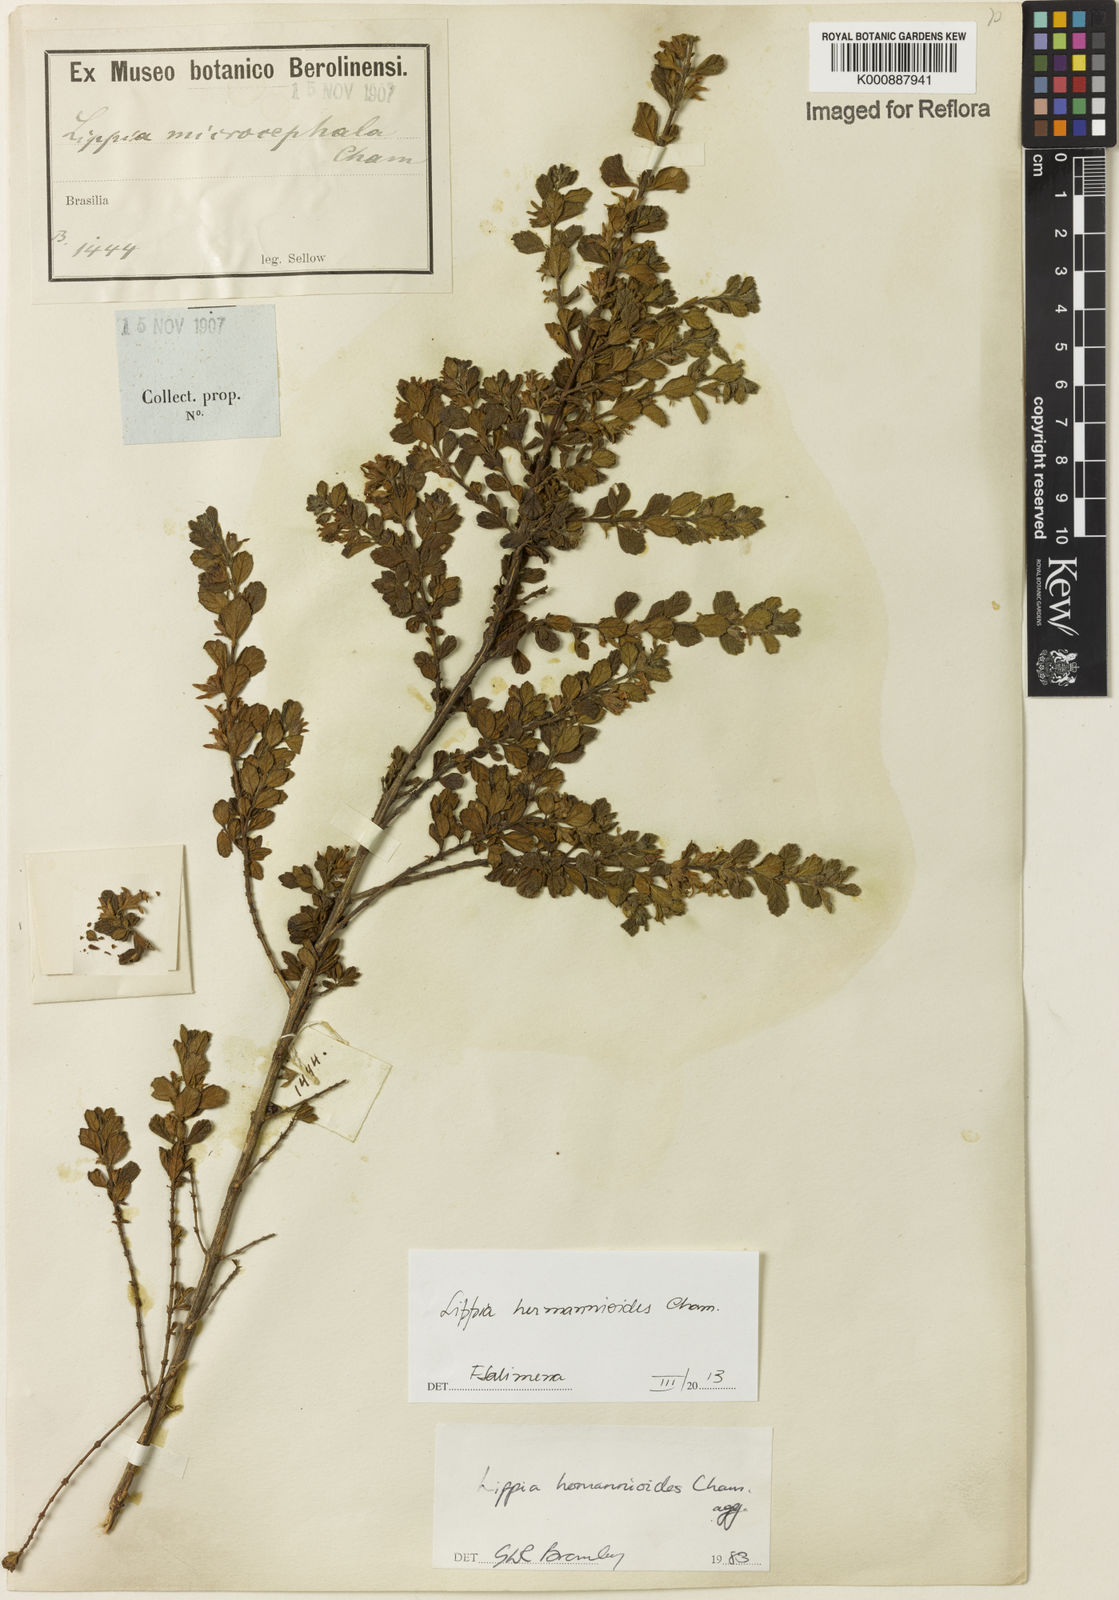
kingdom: Plantae
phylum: Tracheophyta
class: Magnoliopsida
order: Lamiales
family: Verbenaceae
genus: Lippia
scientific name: Lippia hermannioides
